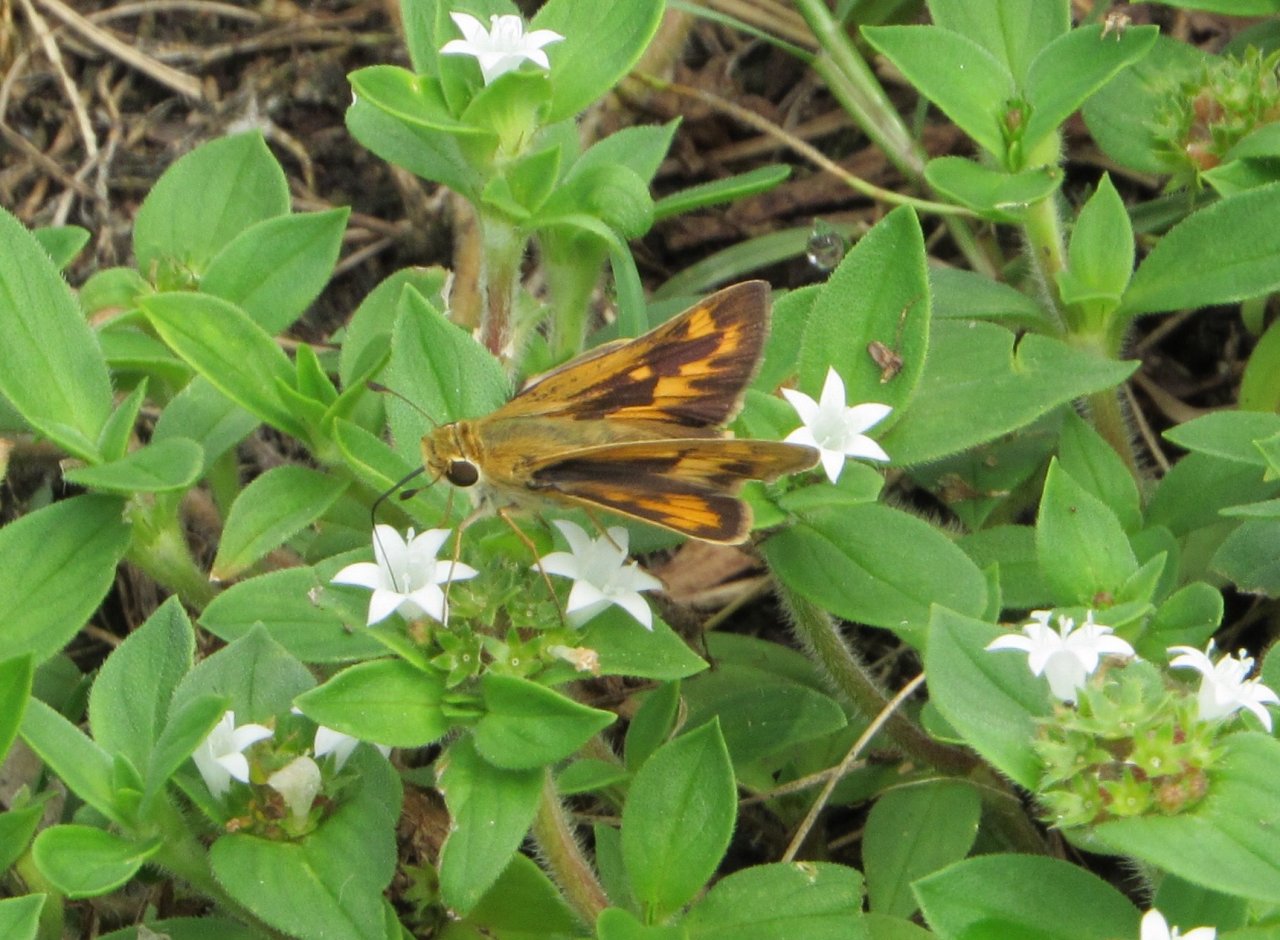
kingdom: Animalia
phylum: Arthropoda
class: Insecta
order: Lepidoptera
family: Hesperiidae
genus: Hylephila
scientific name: Hylephila phyleus
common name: Fiery Skipper
